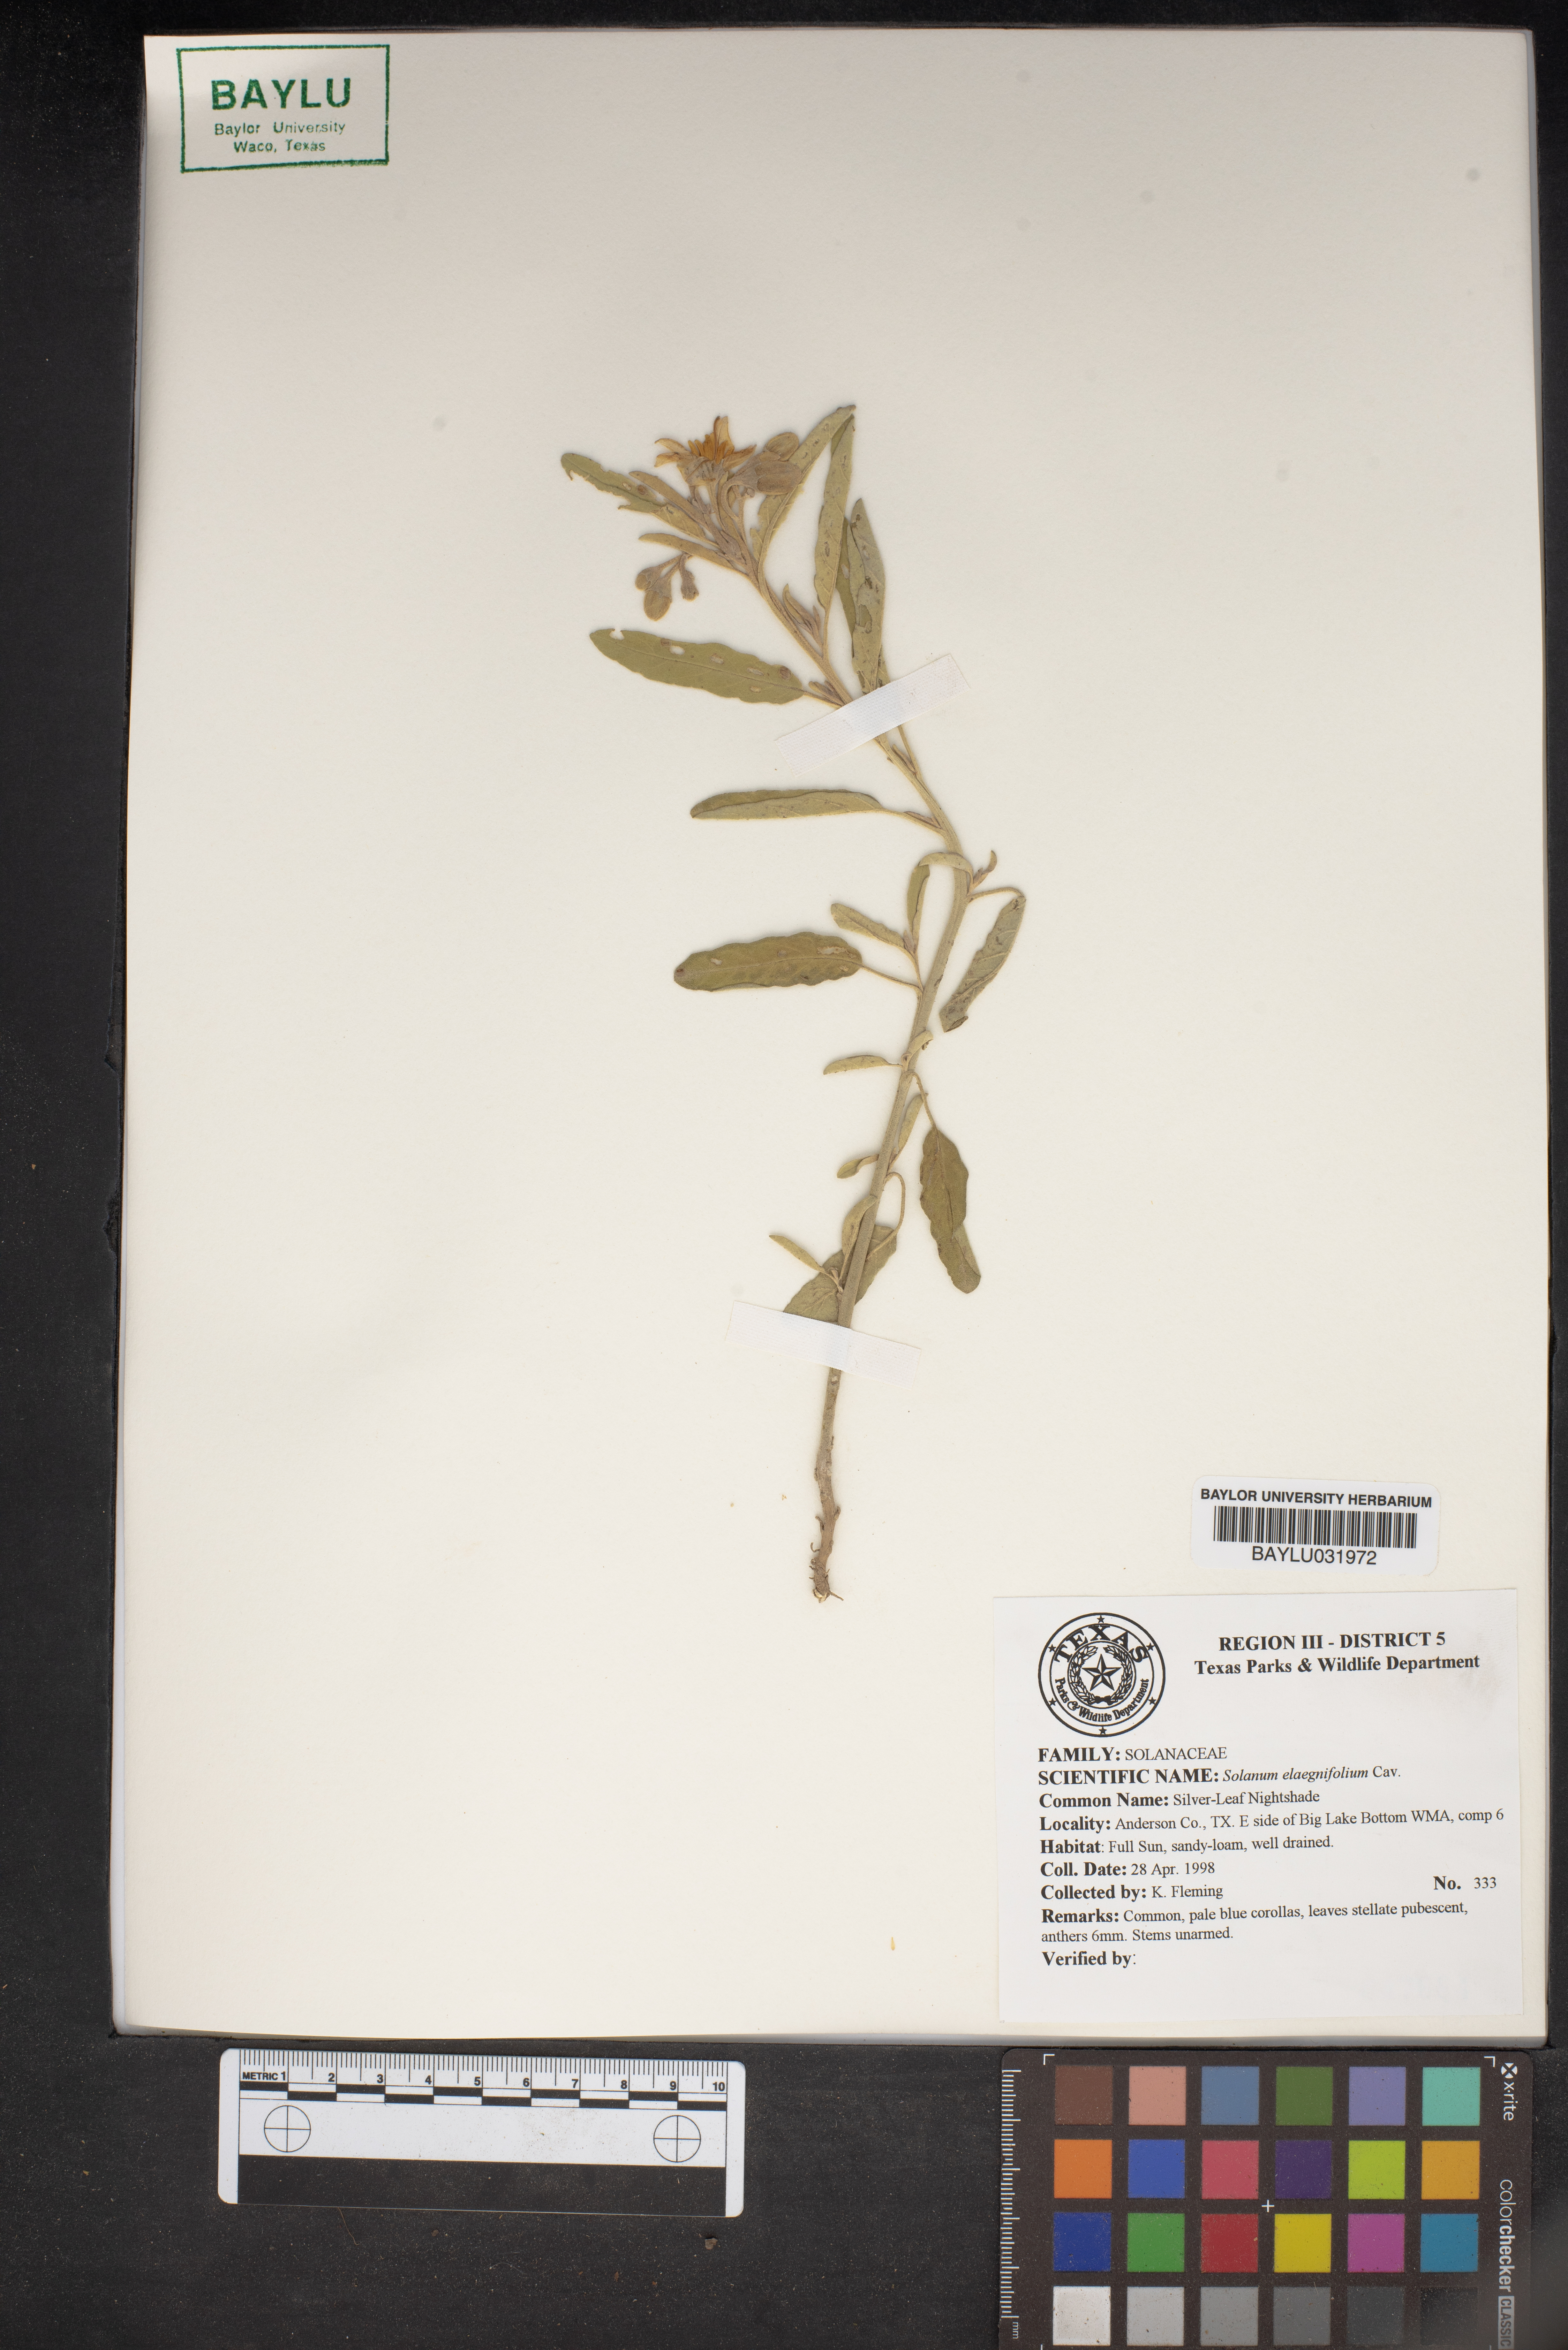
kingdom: Plantae
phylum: Tracheophyta
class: Magnoliopsida
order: Solanales
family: Solanaceae
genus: Solanum
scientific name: Solanum elaeagnifolium
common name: Silverleaf nightshade
